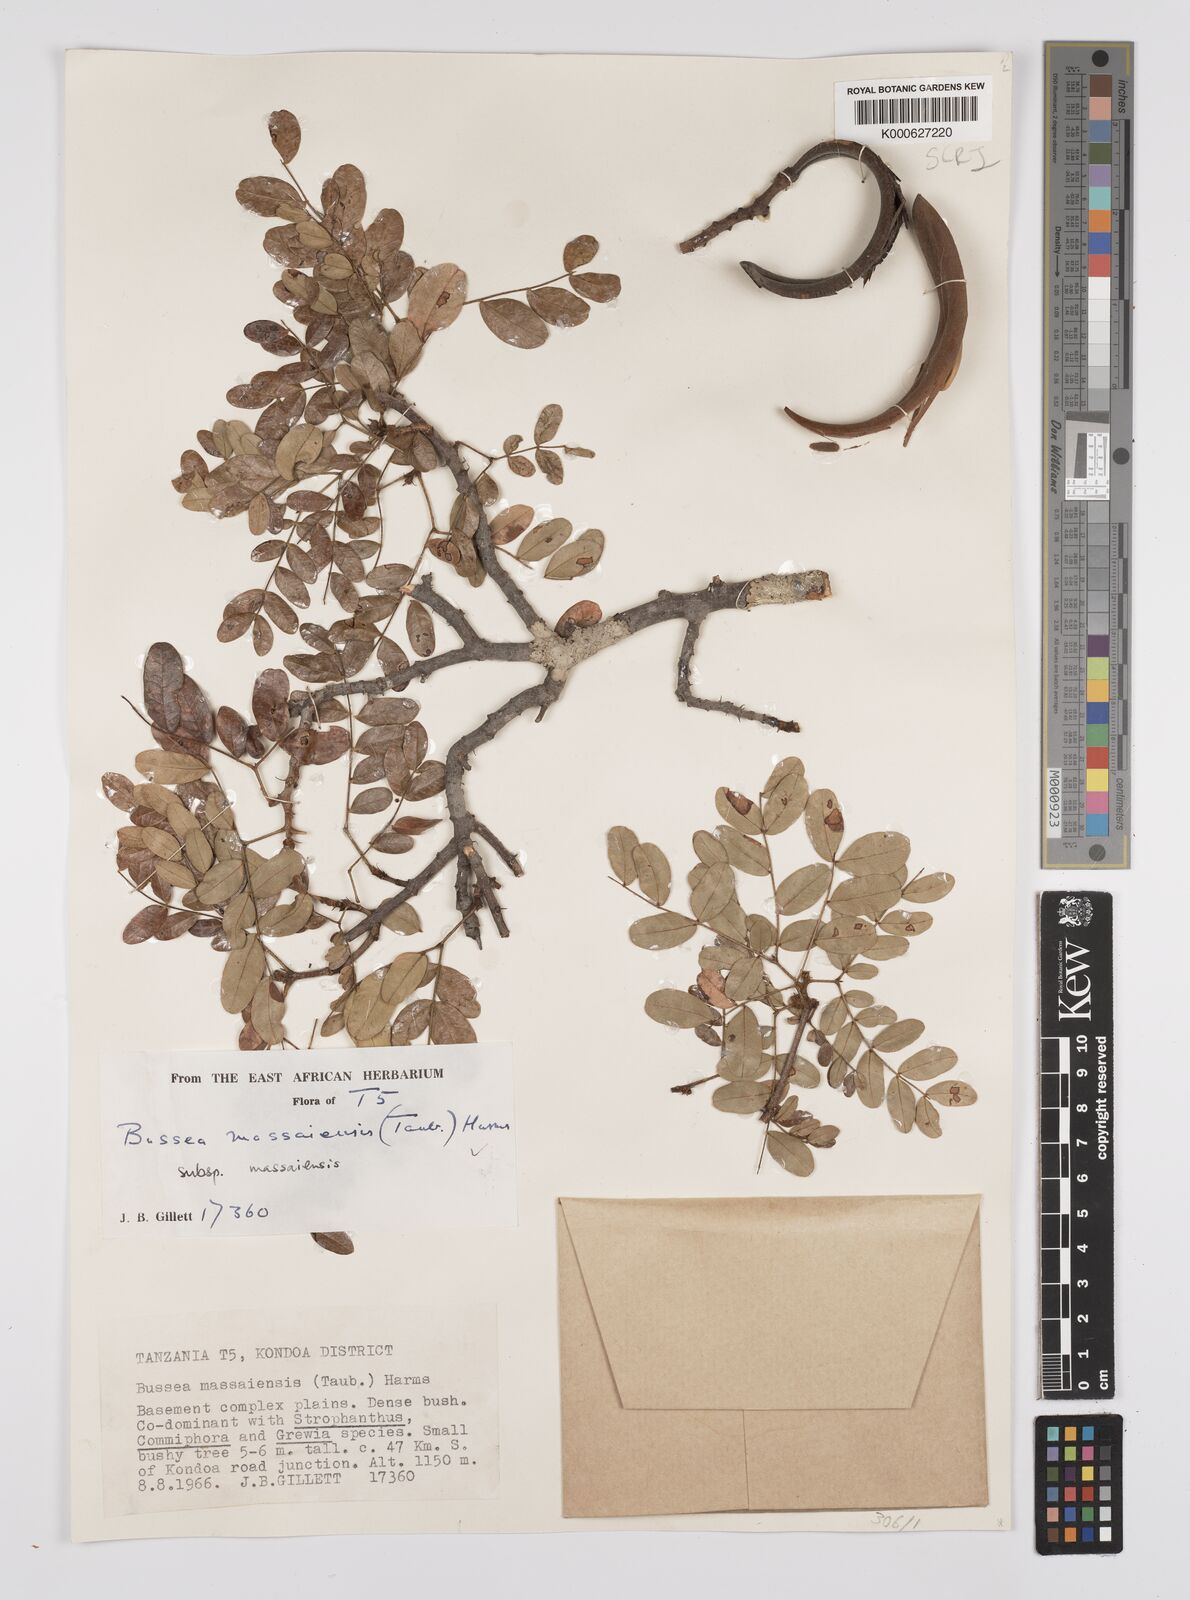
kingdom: Plantae
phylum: Tracheophyta
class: Magnoliopsida
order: Fabales
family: Fabaceae
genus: Bussea
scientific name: Bussea
